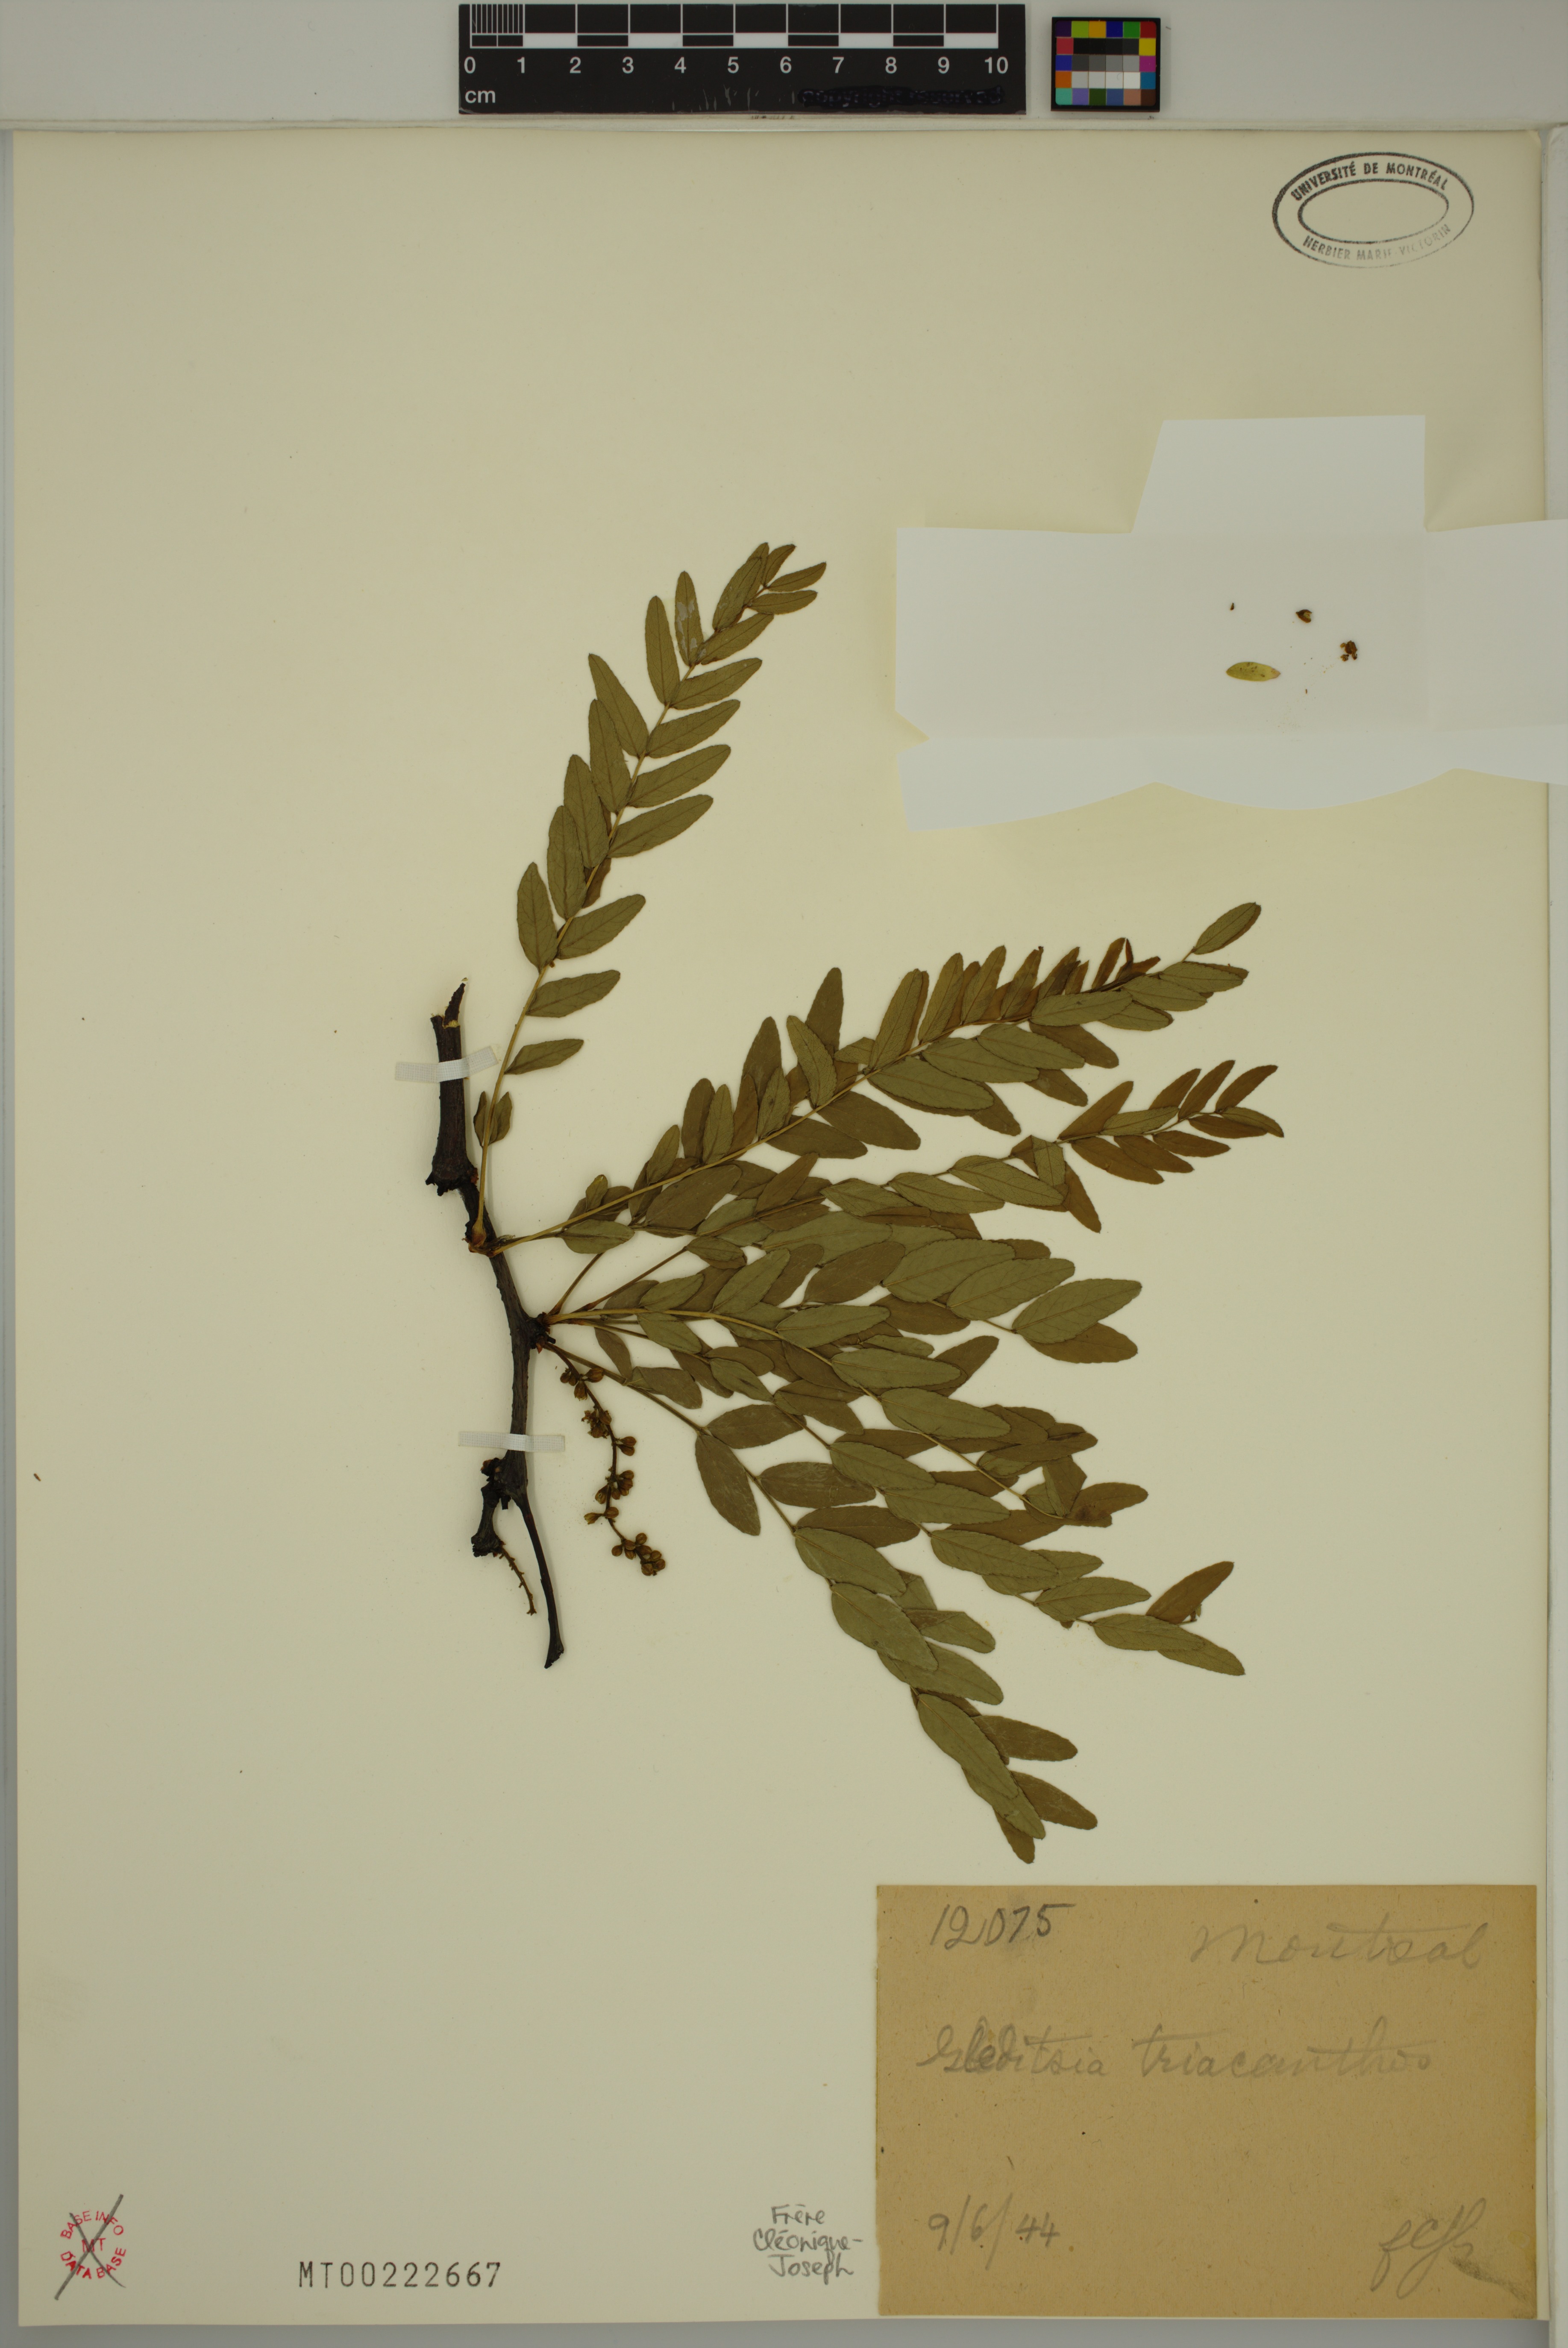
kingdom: Plantae
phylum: Tracheophyta
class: Magnoliopsida
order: Fabales
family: Fabaceae
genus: Gleditsia
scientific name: Gleditsia triacanthos
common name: Common honeylocust
